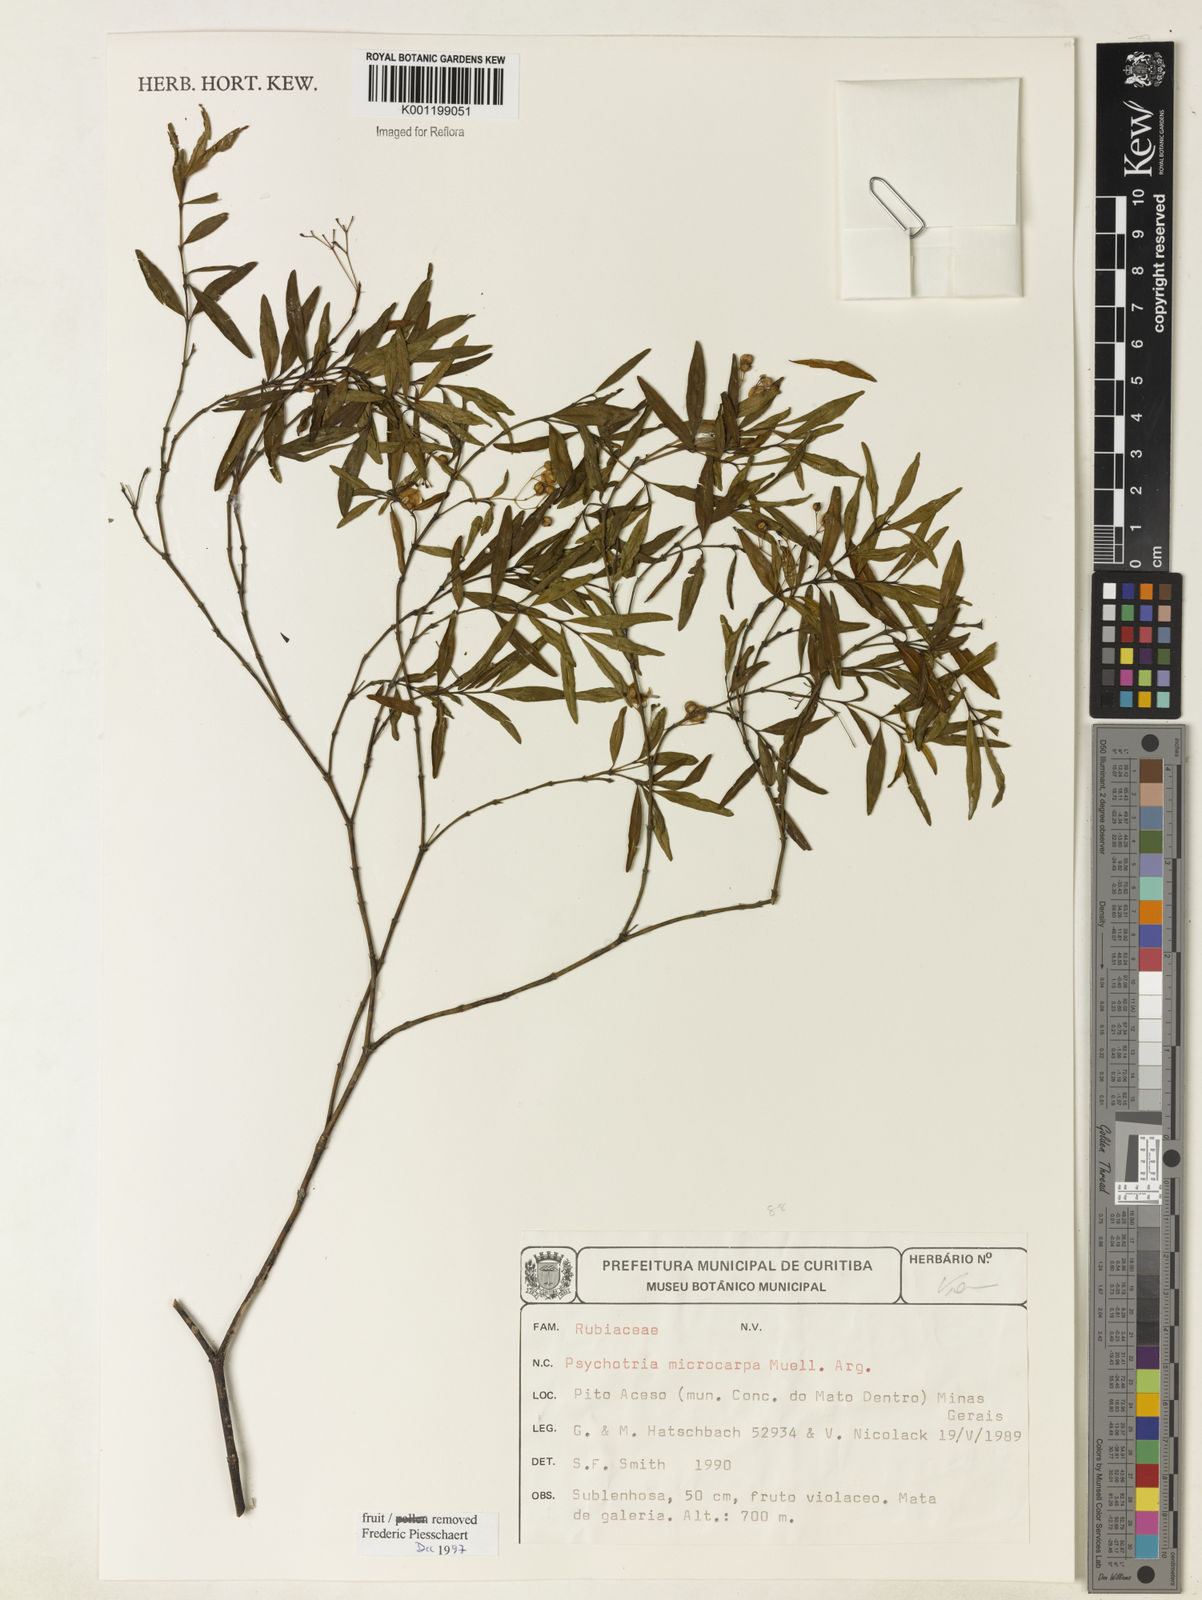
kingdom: Plantae
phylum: Tracheophyta
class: Magnoliopsida
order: Gentianales
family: Rubiaceae
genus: Psychotria
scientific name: Psychotria
